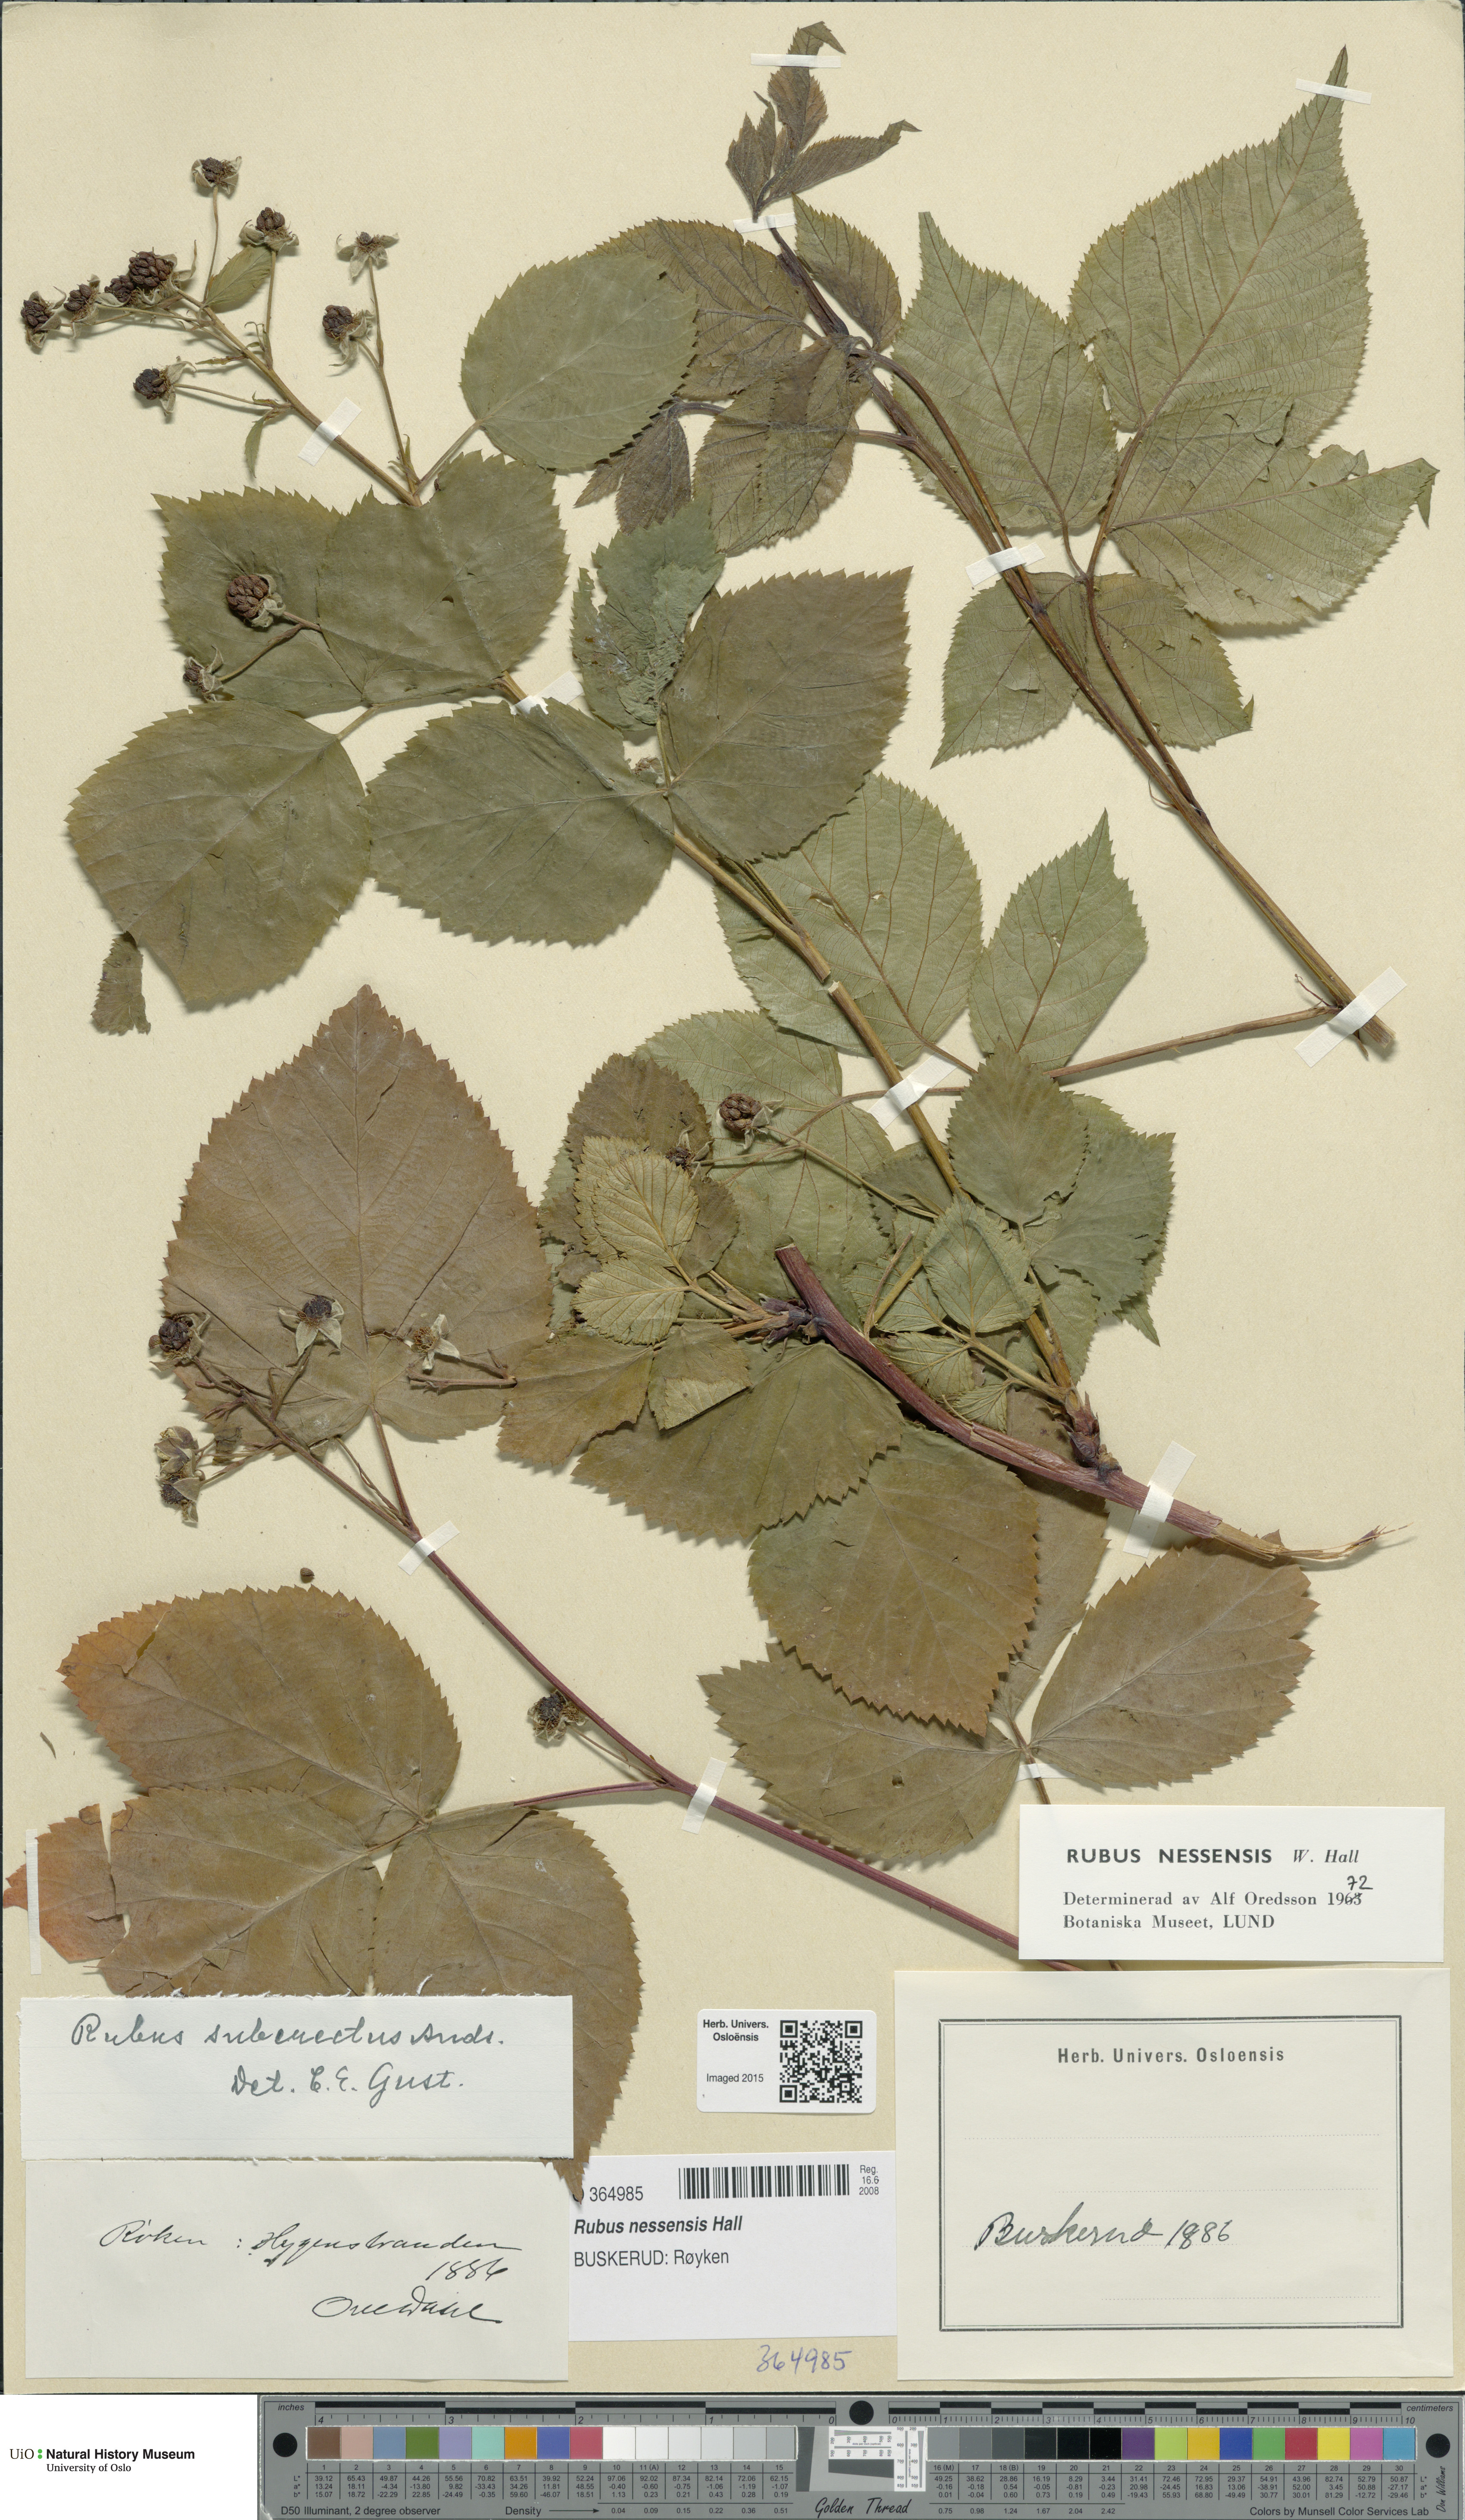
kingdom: Plantae
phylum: Tracheophyta
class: Magnoliopsida
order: Rosales
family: Rosaceae
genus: Rubus
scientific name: Rubus polonicus
